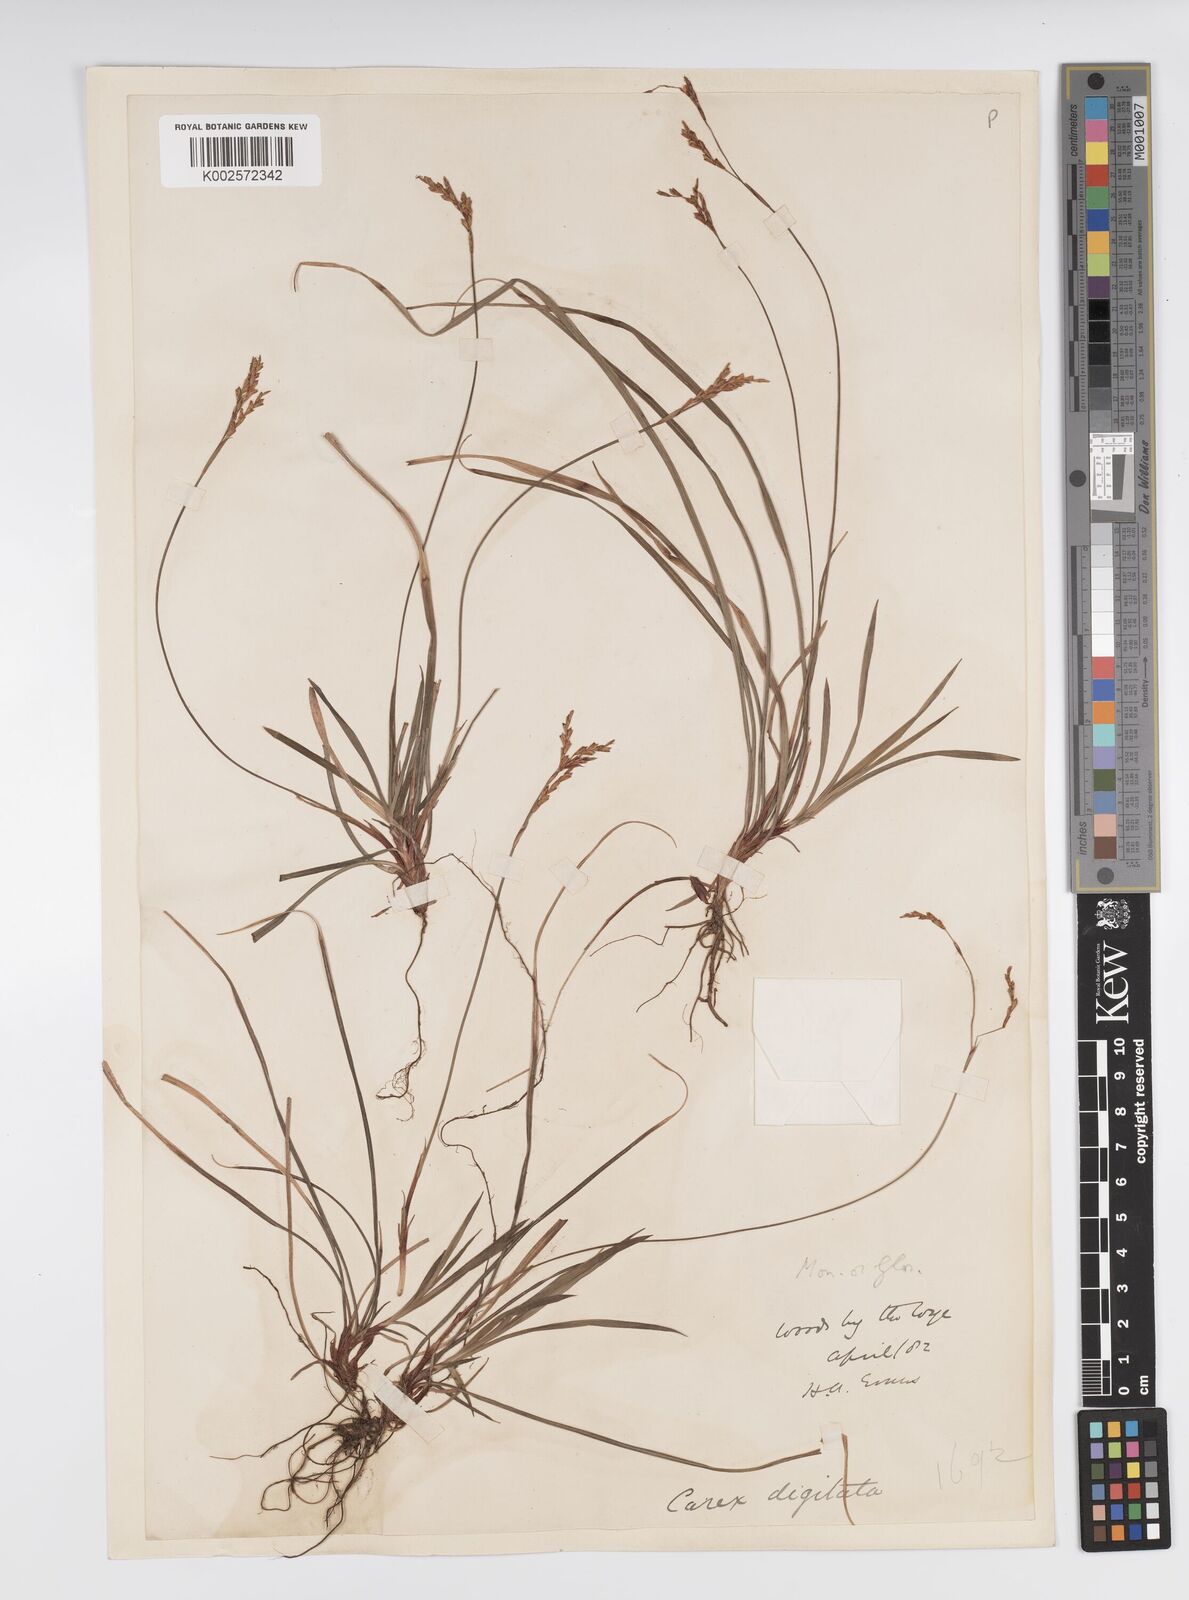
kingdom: Plantae
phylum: Tracheophyta
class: Liliopsida
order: Poales
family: Cyperaceae
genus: Carex
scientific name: Carex digitata
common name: Fingered sedge
